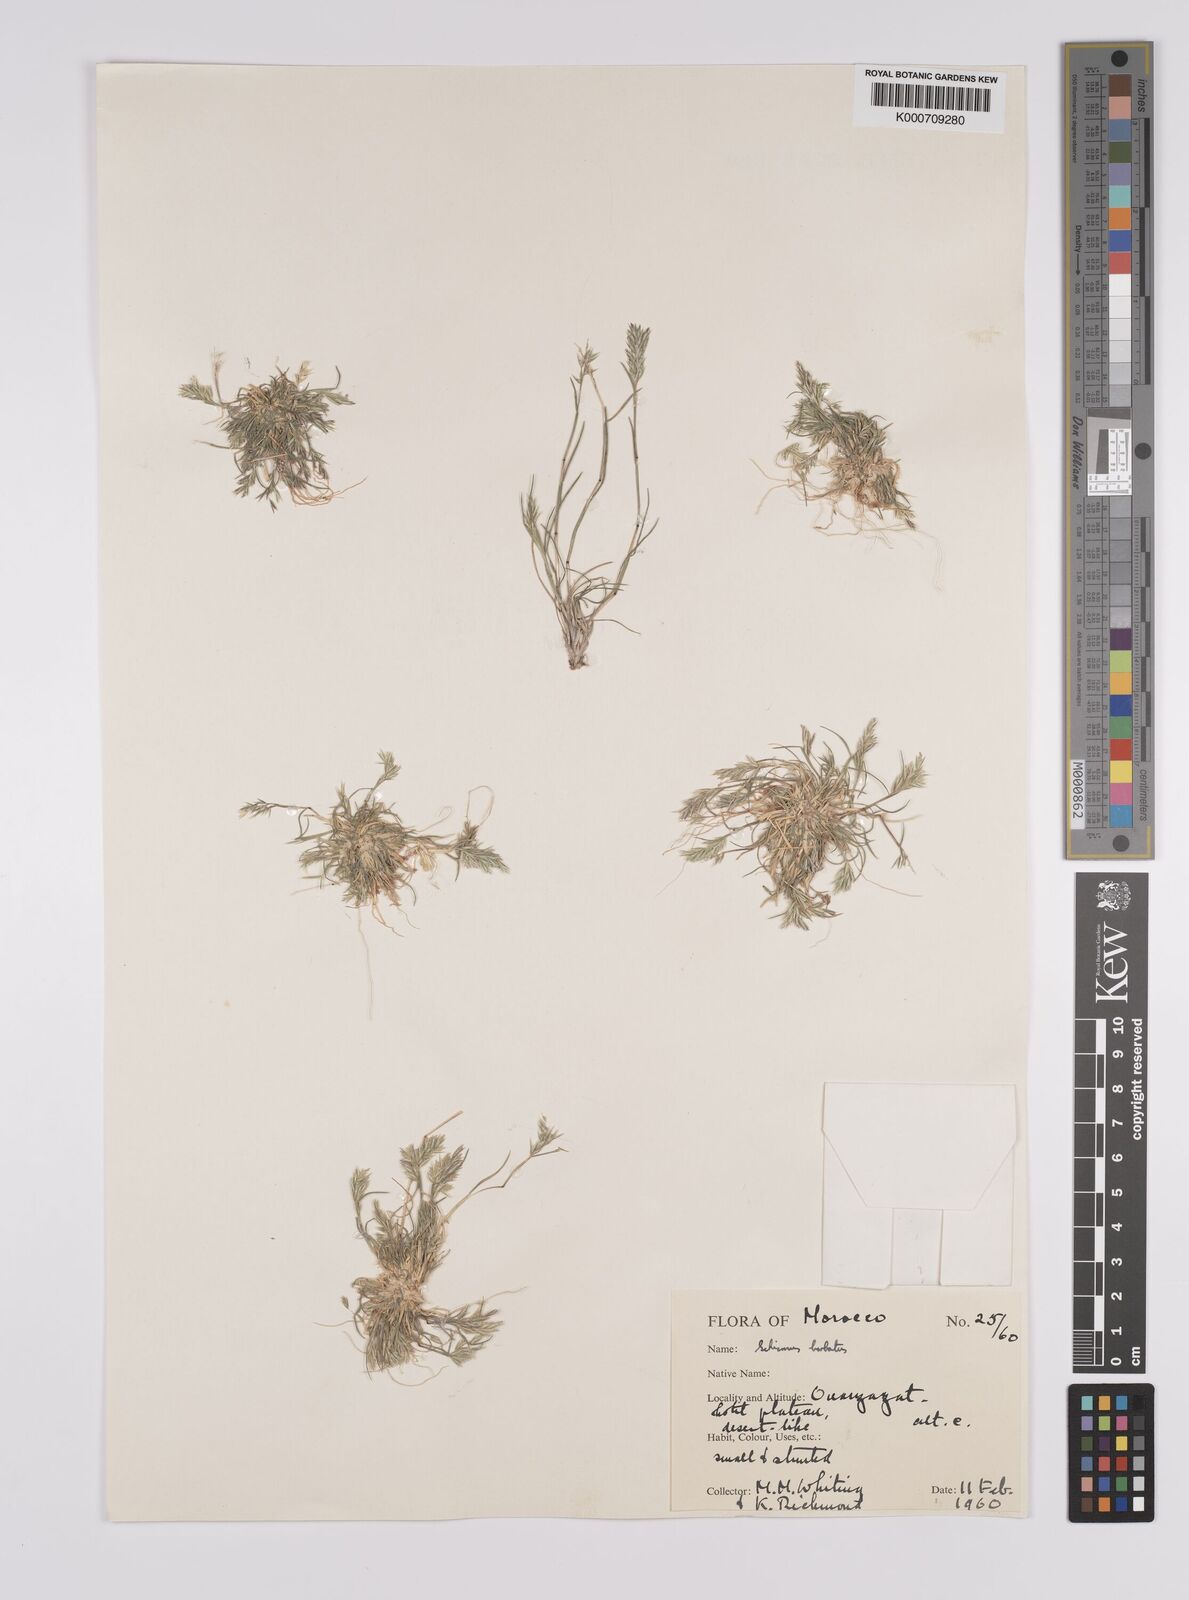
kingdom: Plantae
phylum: Tracheophyta
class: Liliopsida
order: Poales
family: Poaceae
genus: Schismus
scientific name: Schismus barbatus
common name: Kelch-grass
